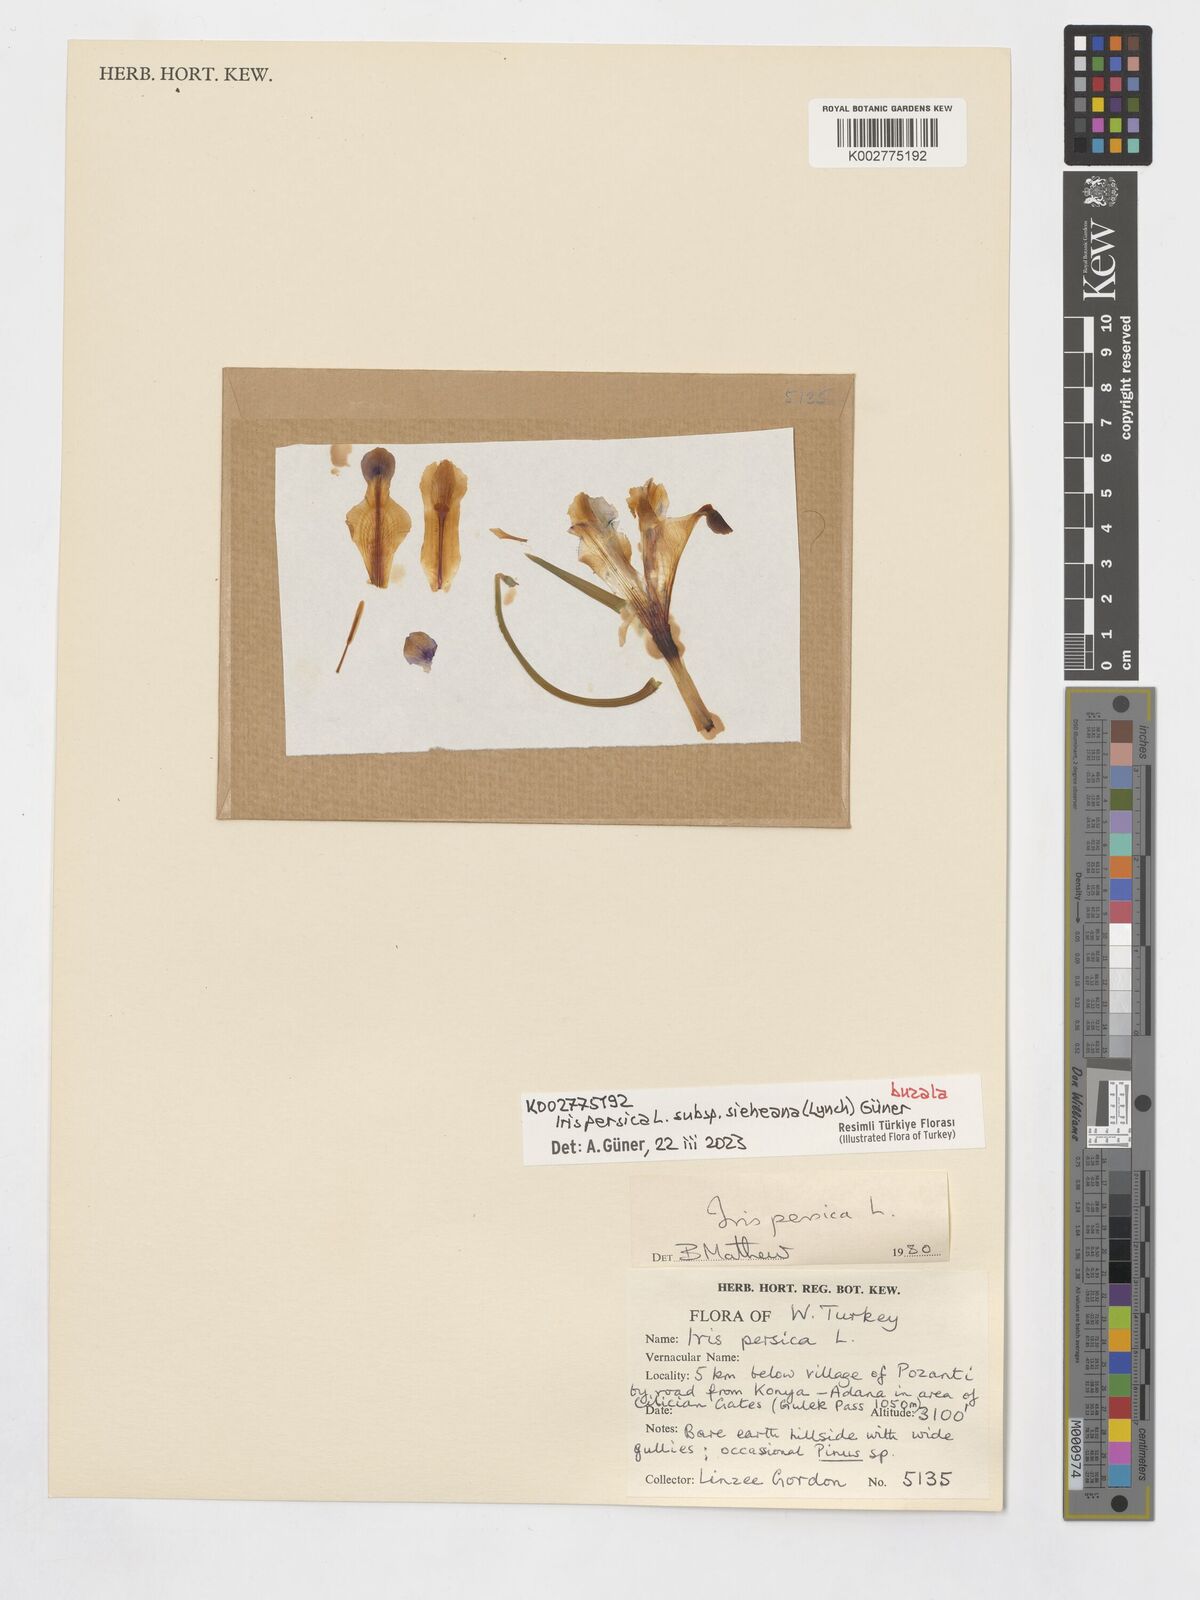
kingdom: Plantae
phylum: Tracheophyta
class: Liliopsida
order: Asparagales
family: Iridaceae
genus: Iris
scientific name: Iris persica
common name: Persian iris
